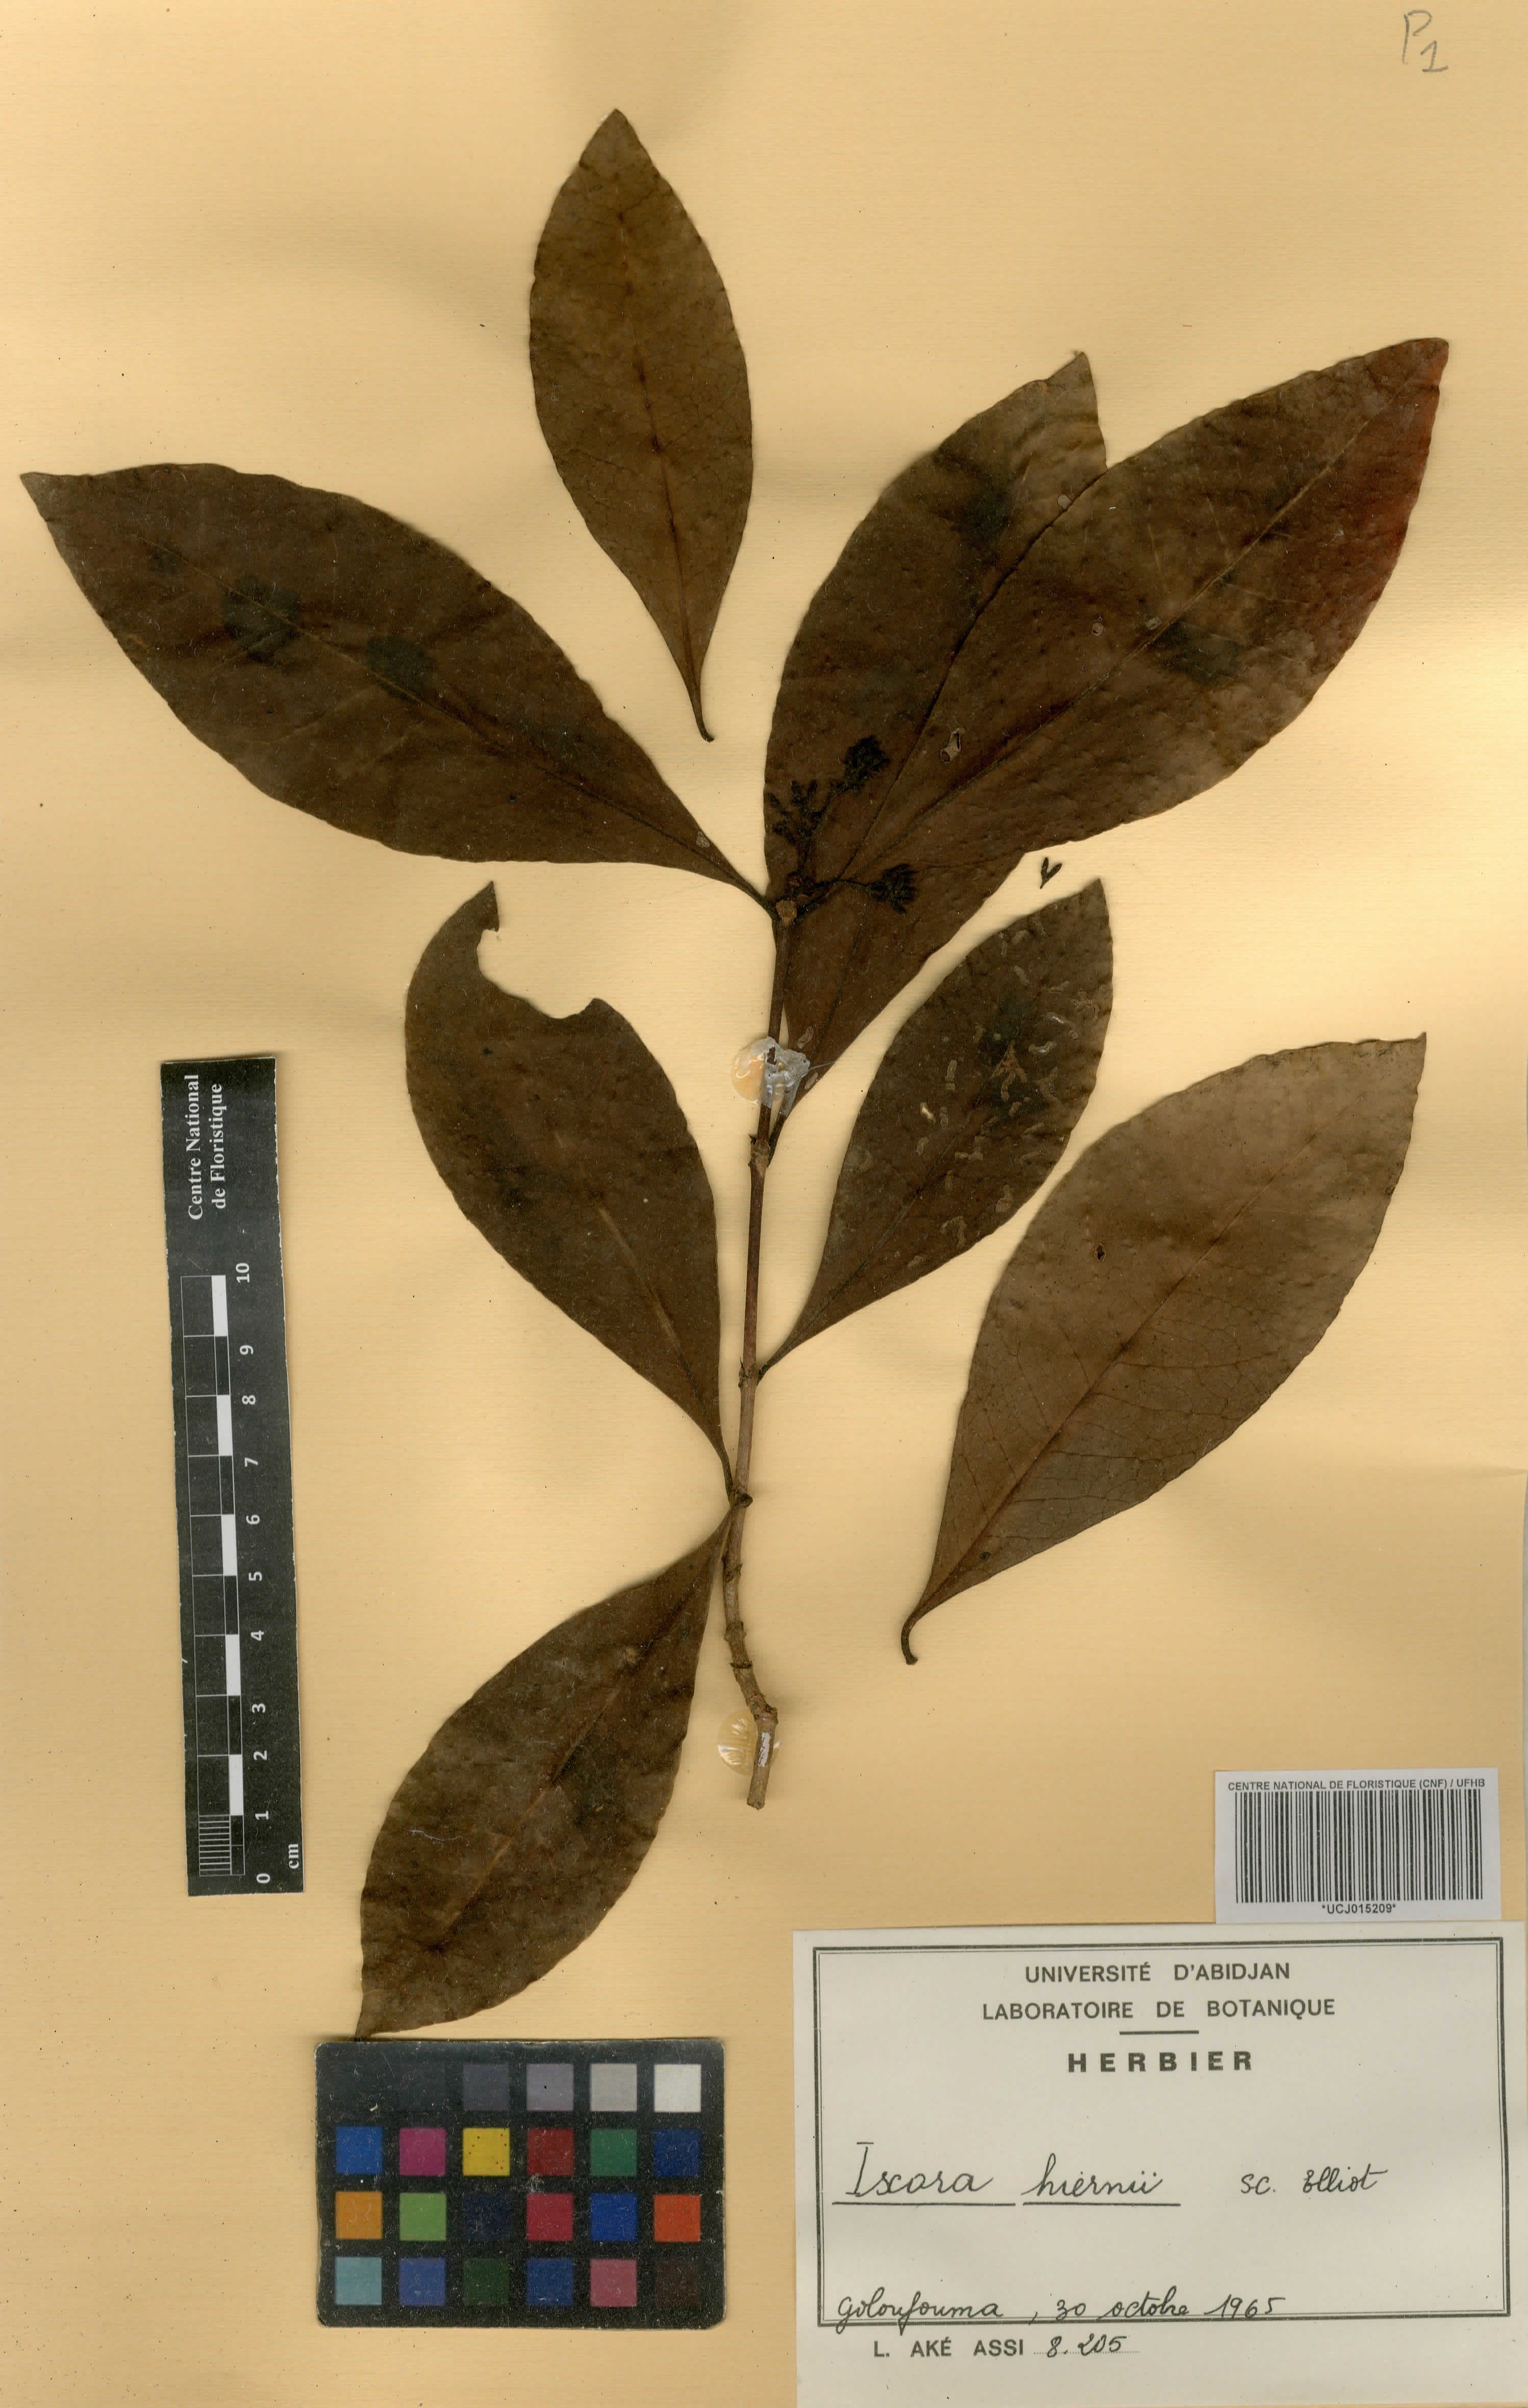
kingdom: Plantae
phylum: Tracheophyta
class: Magnoliopsida
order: Gentianales
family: Rubiaceae
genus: Ixora
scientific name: Ixora hiernii
